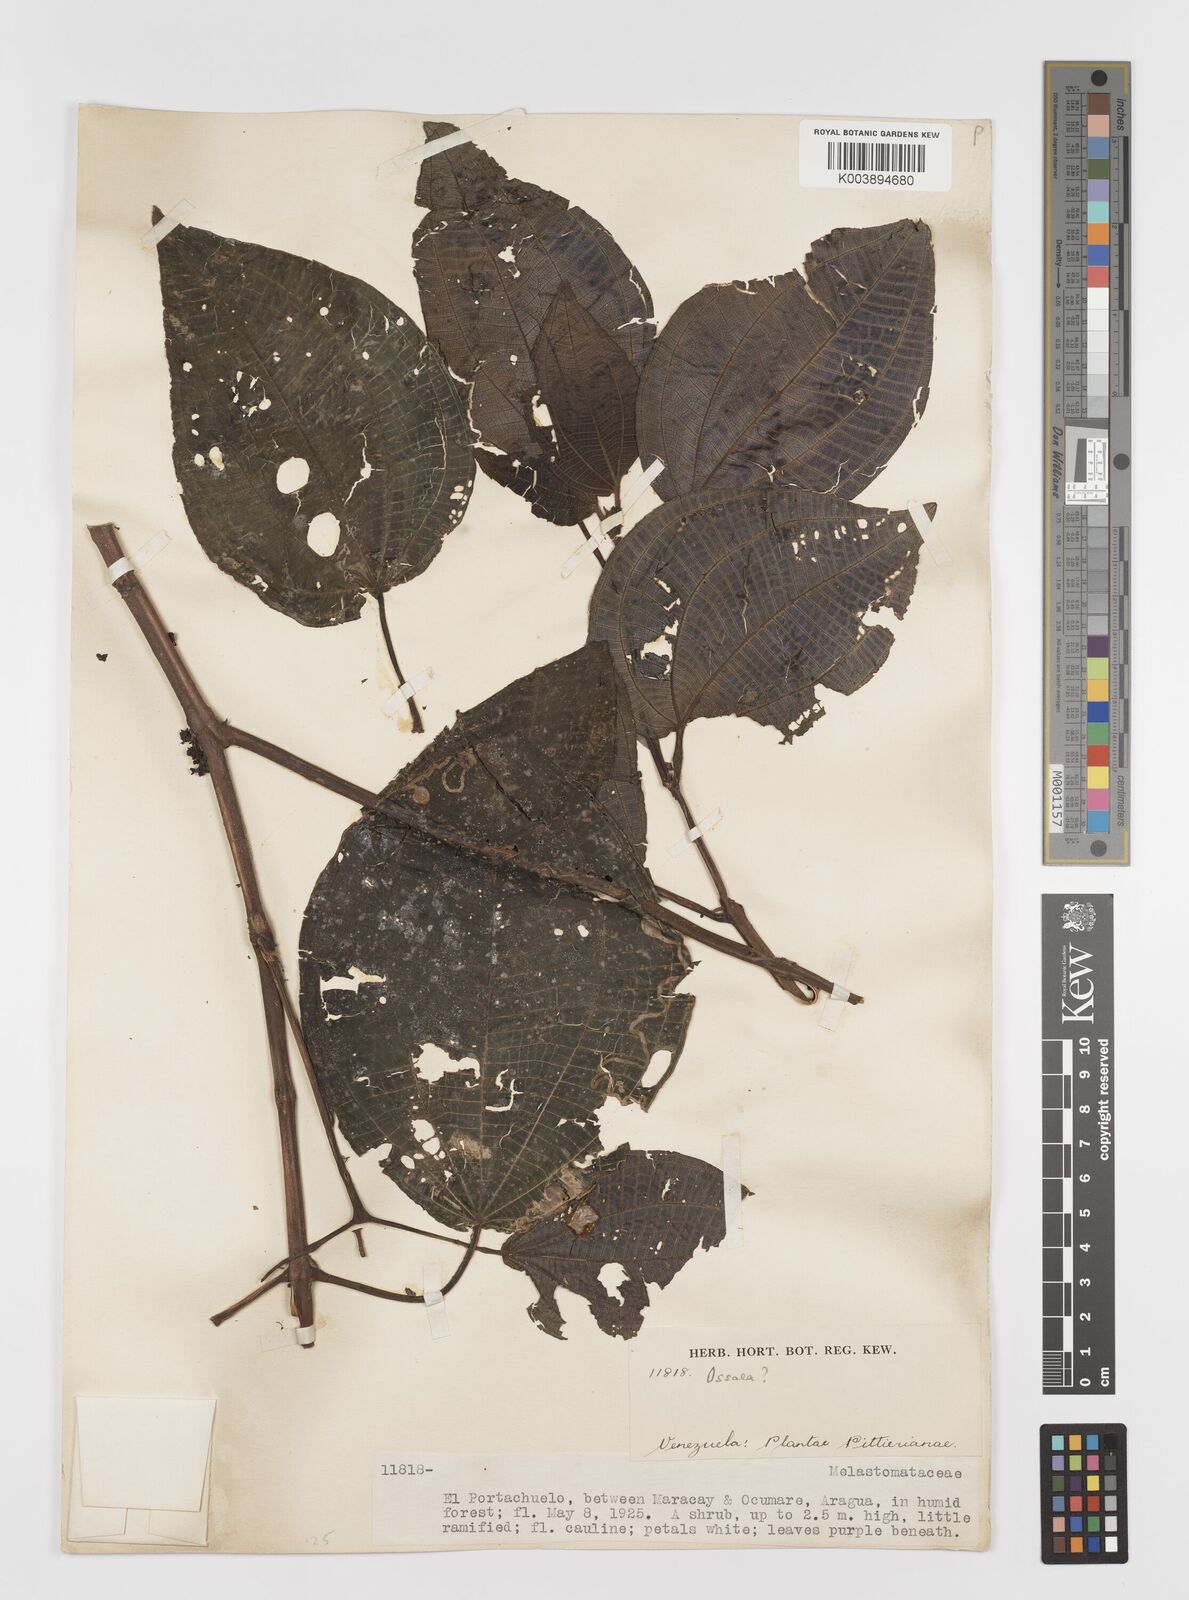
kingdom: Plantae
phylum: Tracheophyta
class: Magnoliopsida
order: Myrtales
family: Melastomataceae
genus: Ossaea
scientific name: Ossaea
